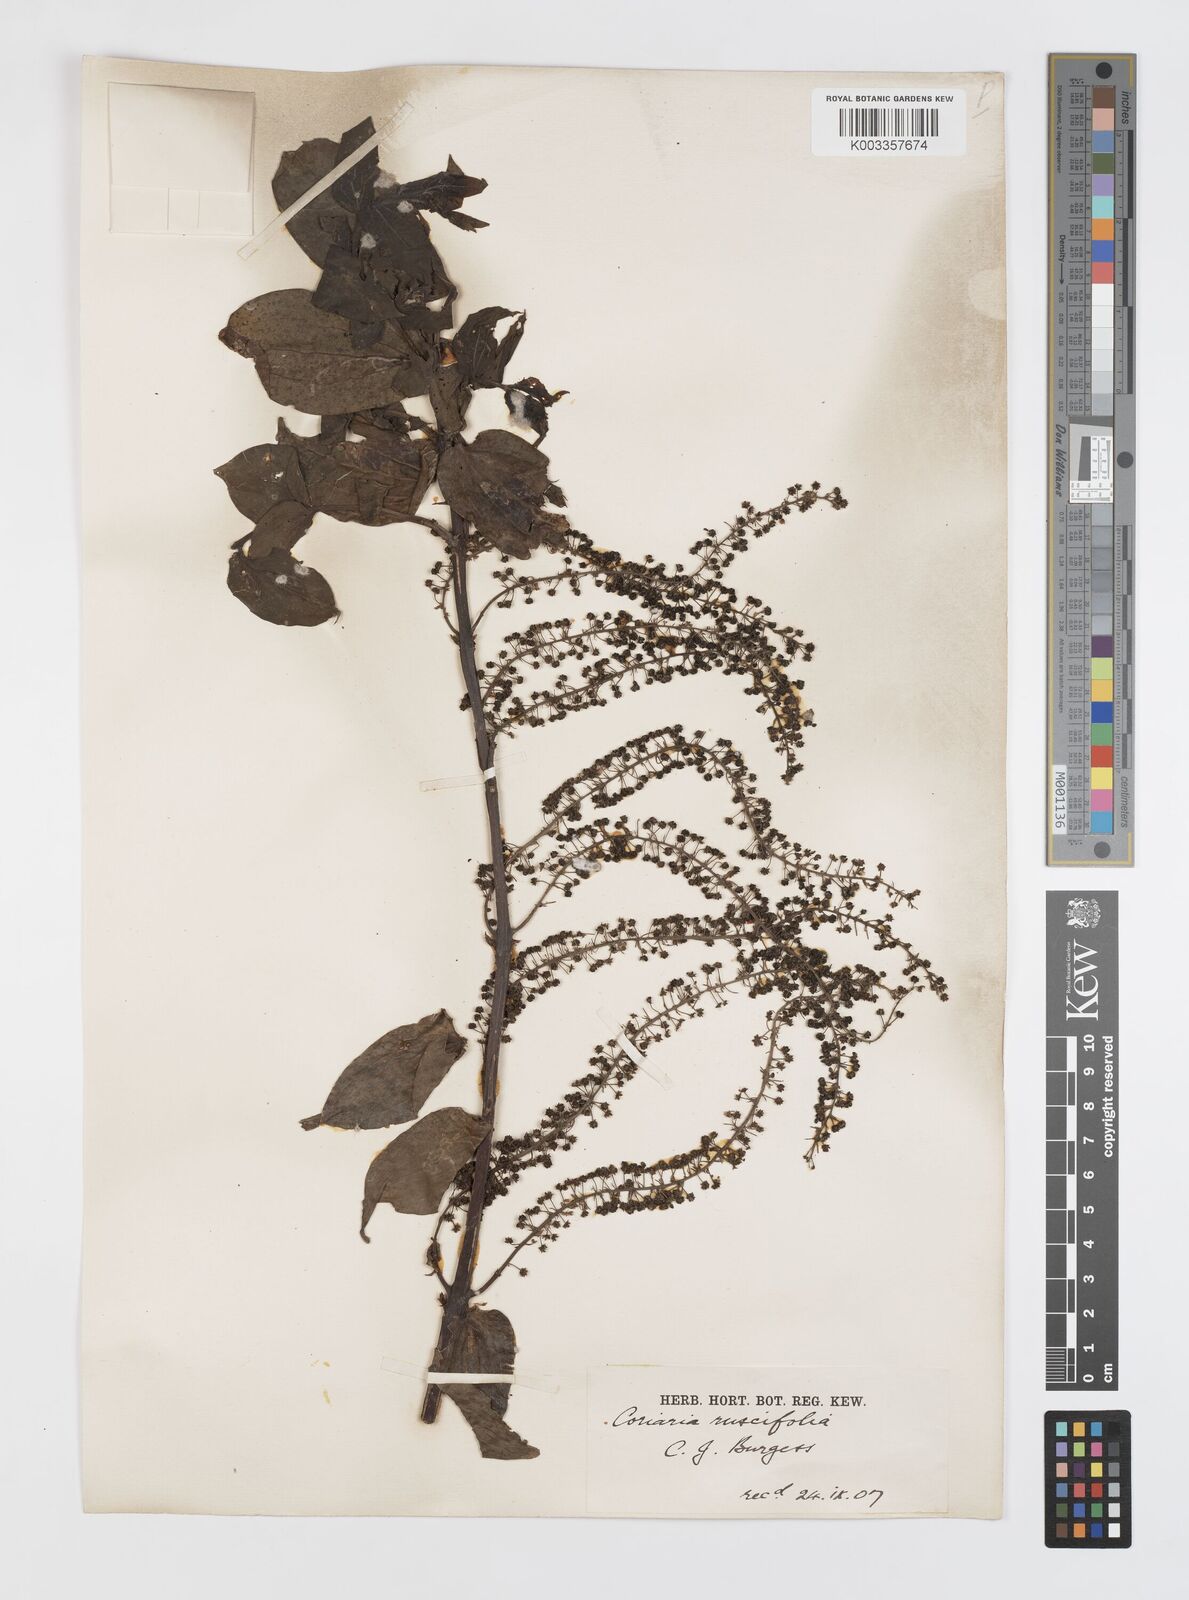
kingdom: Plantae
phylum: Tracheophyta
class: Magnoliopsida
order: Cucurbitales
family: Coriariaceae
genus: Coriaria
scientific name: Coriaria ruscifolia
